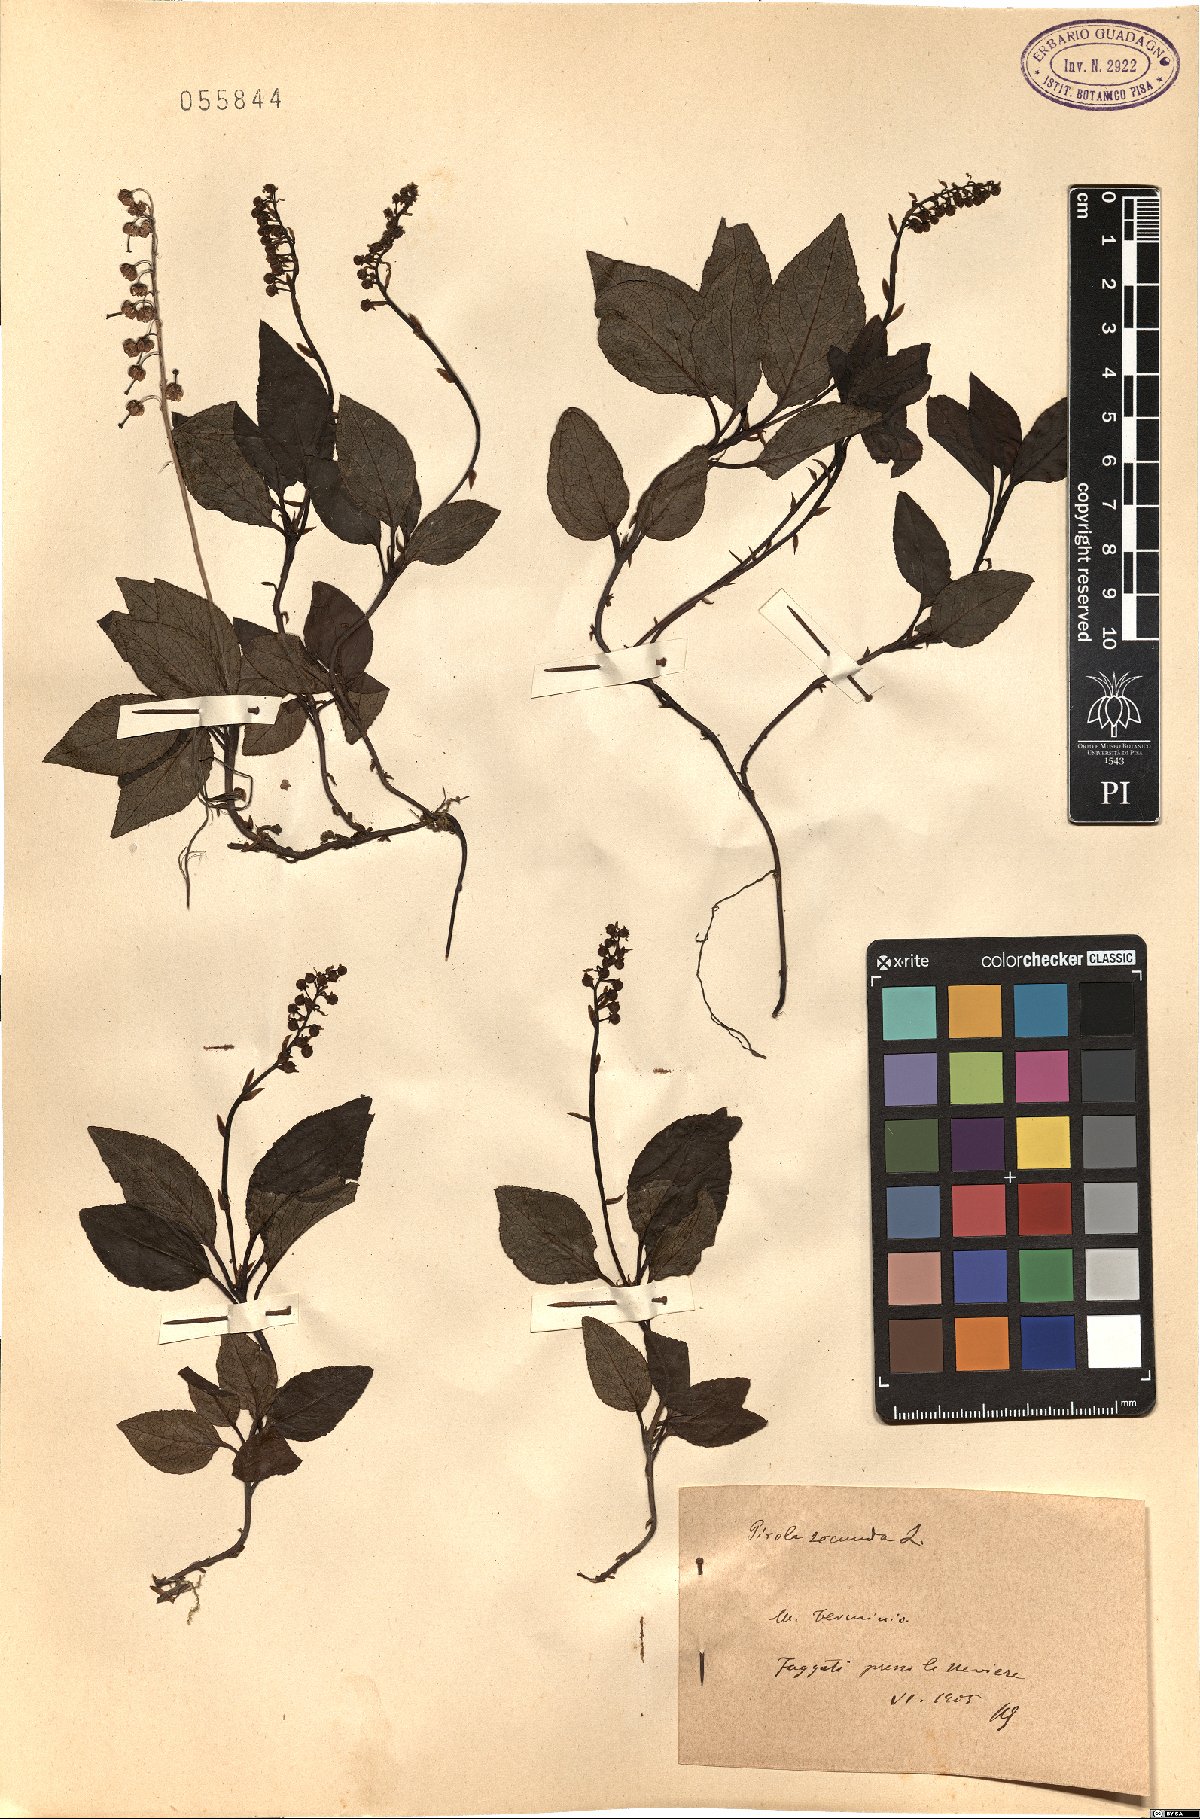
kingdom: Plantae
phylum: Tracheophyta
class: Magnoliopsida
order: Ericales
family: Ericaceae
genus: Orthilia
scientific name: Orthilia secunda
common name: One-sided orthilia
